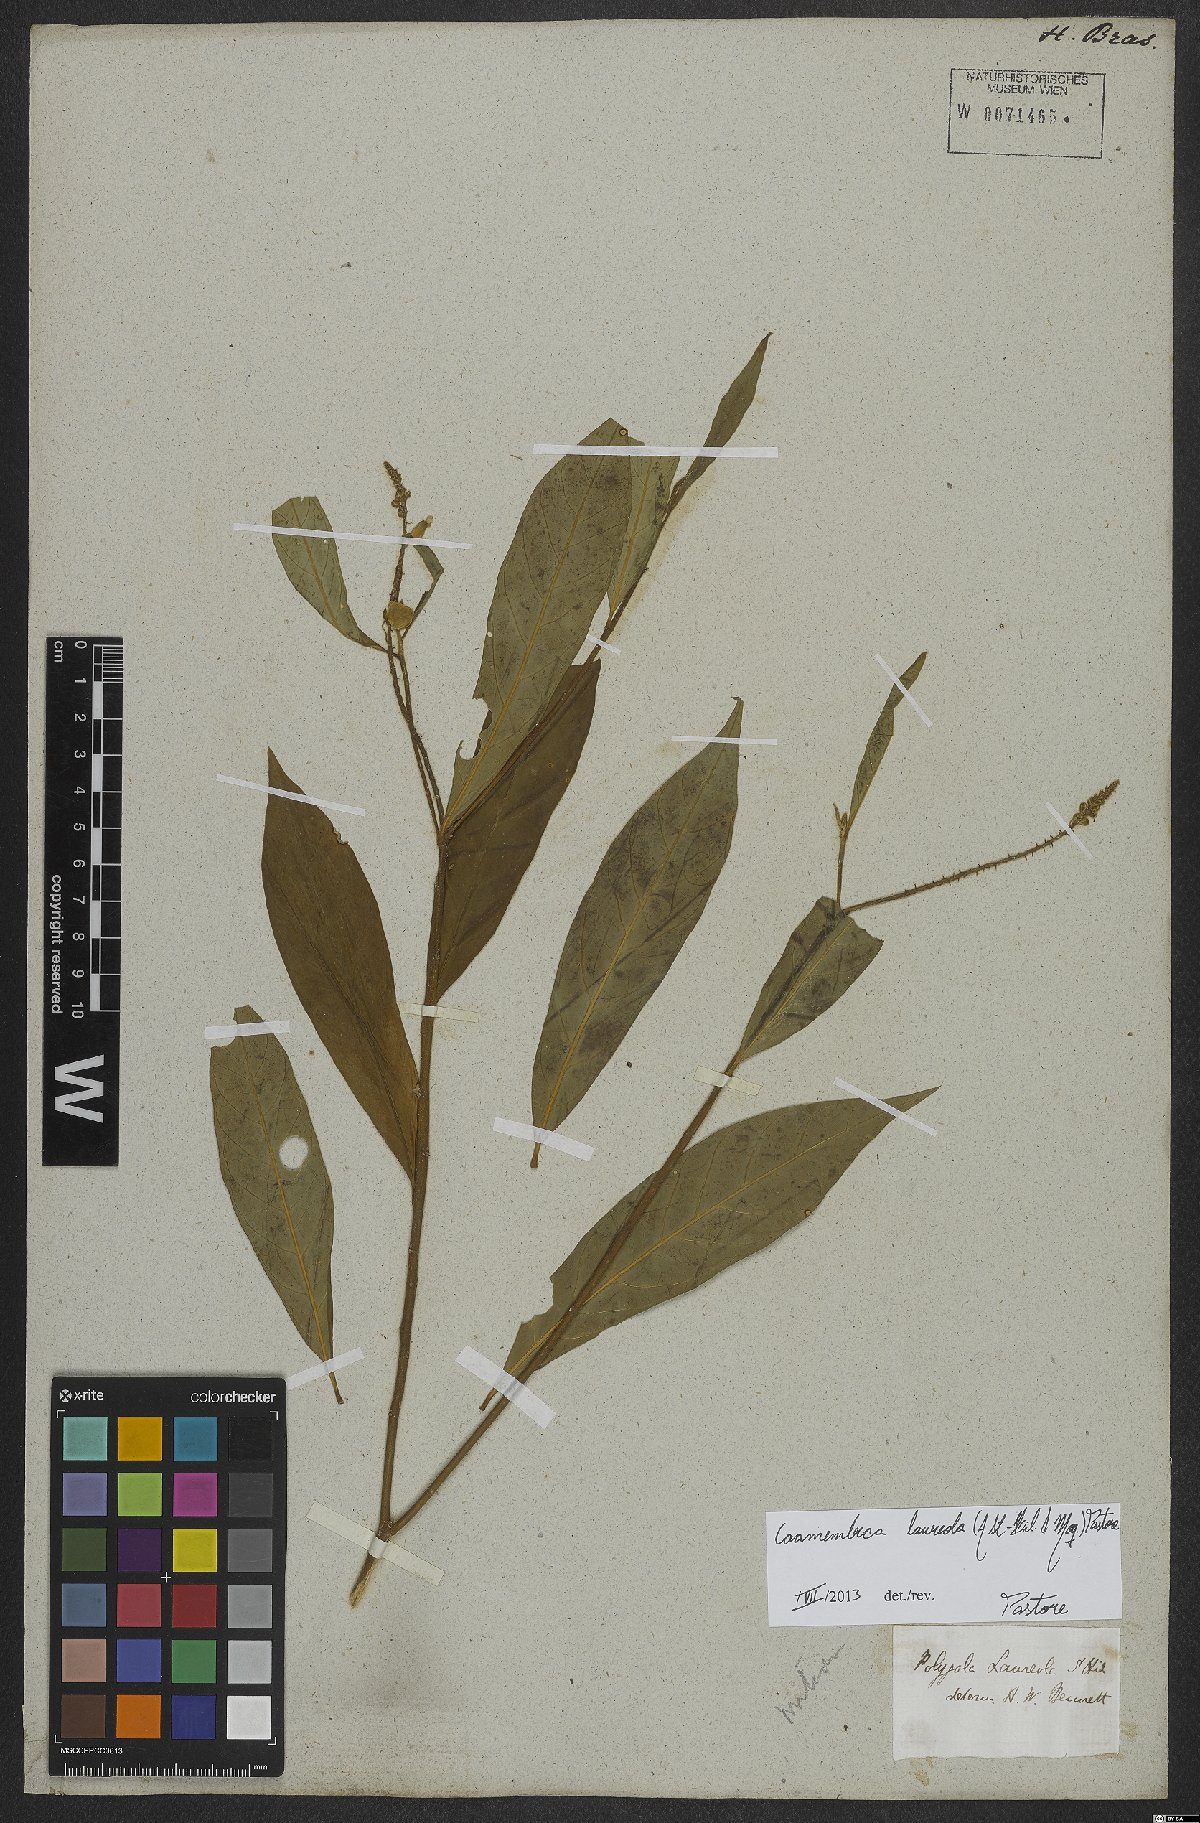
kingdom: Plantae
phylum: Tracheophyta
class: Magnoliopsida
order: Fabales
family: Polygalaceae
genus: Caamembeca
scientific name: Caamembeca salicifolia
